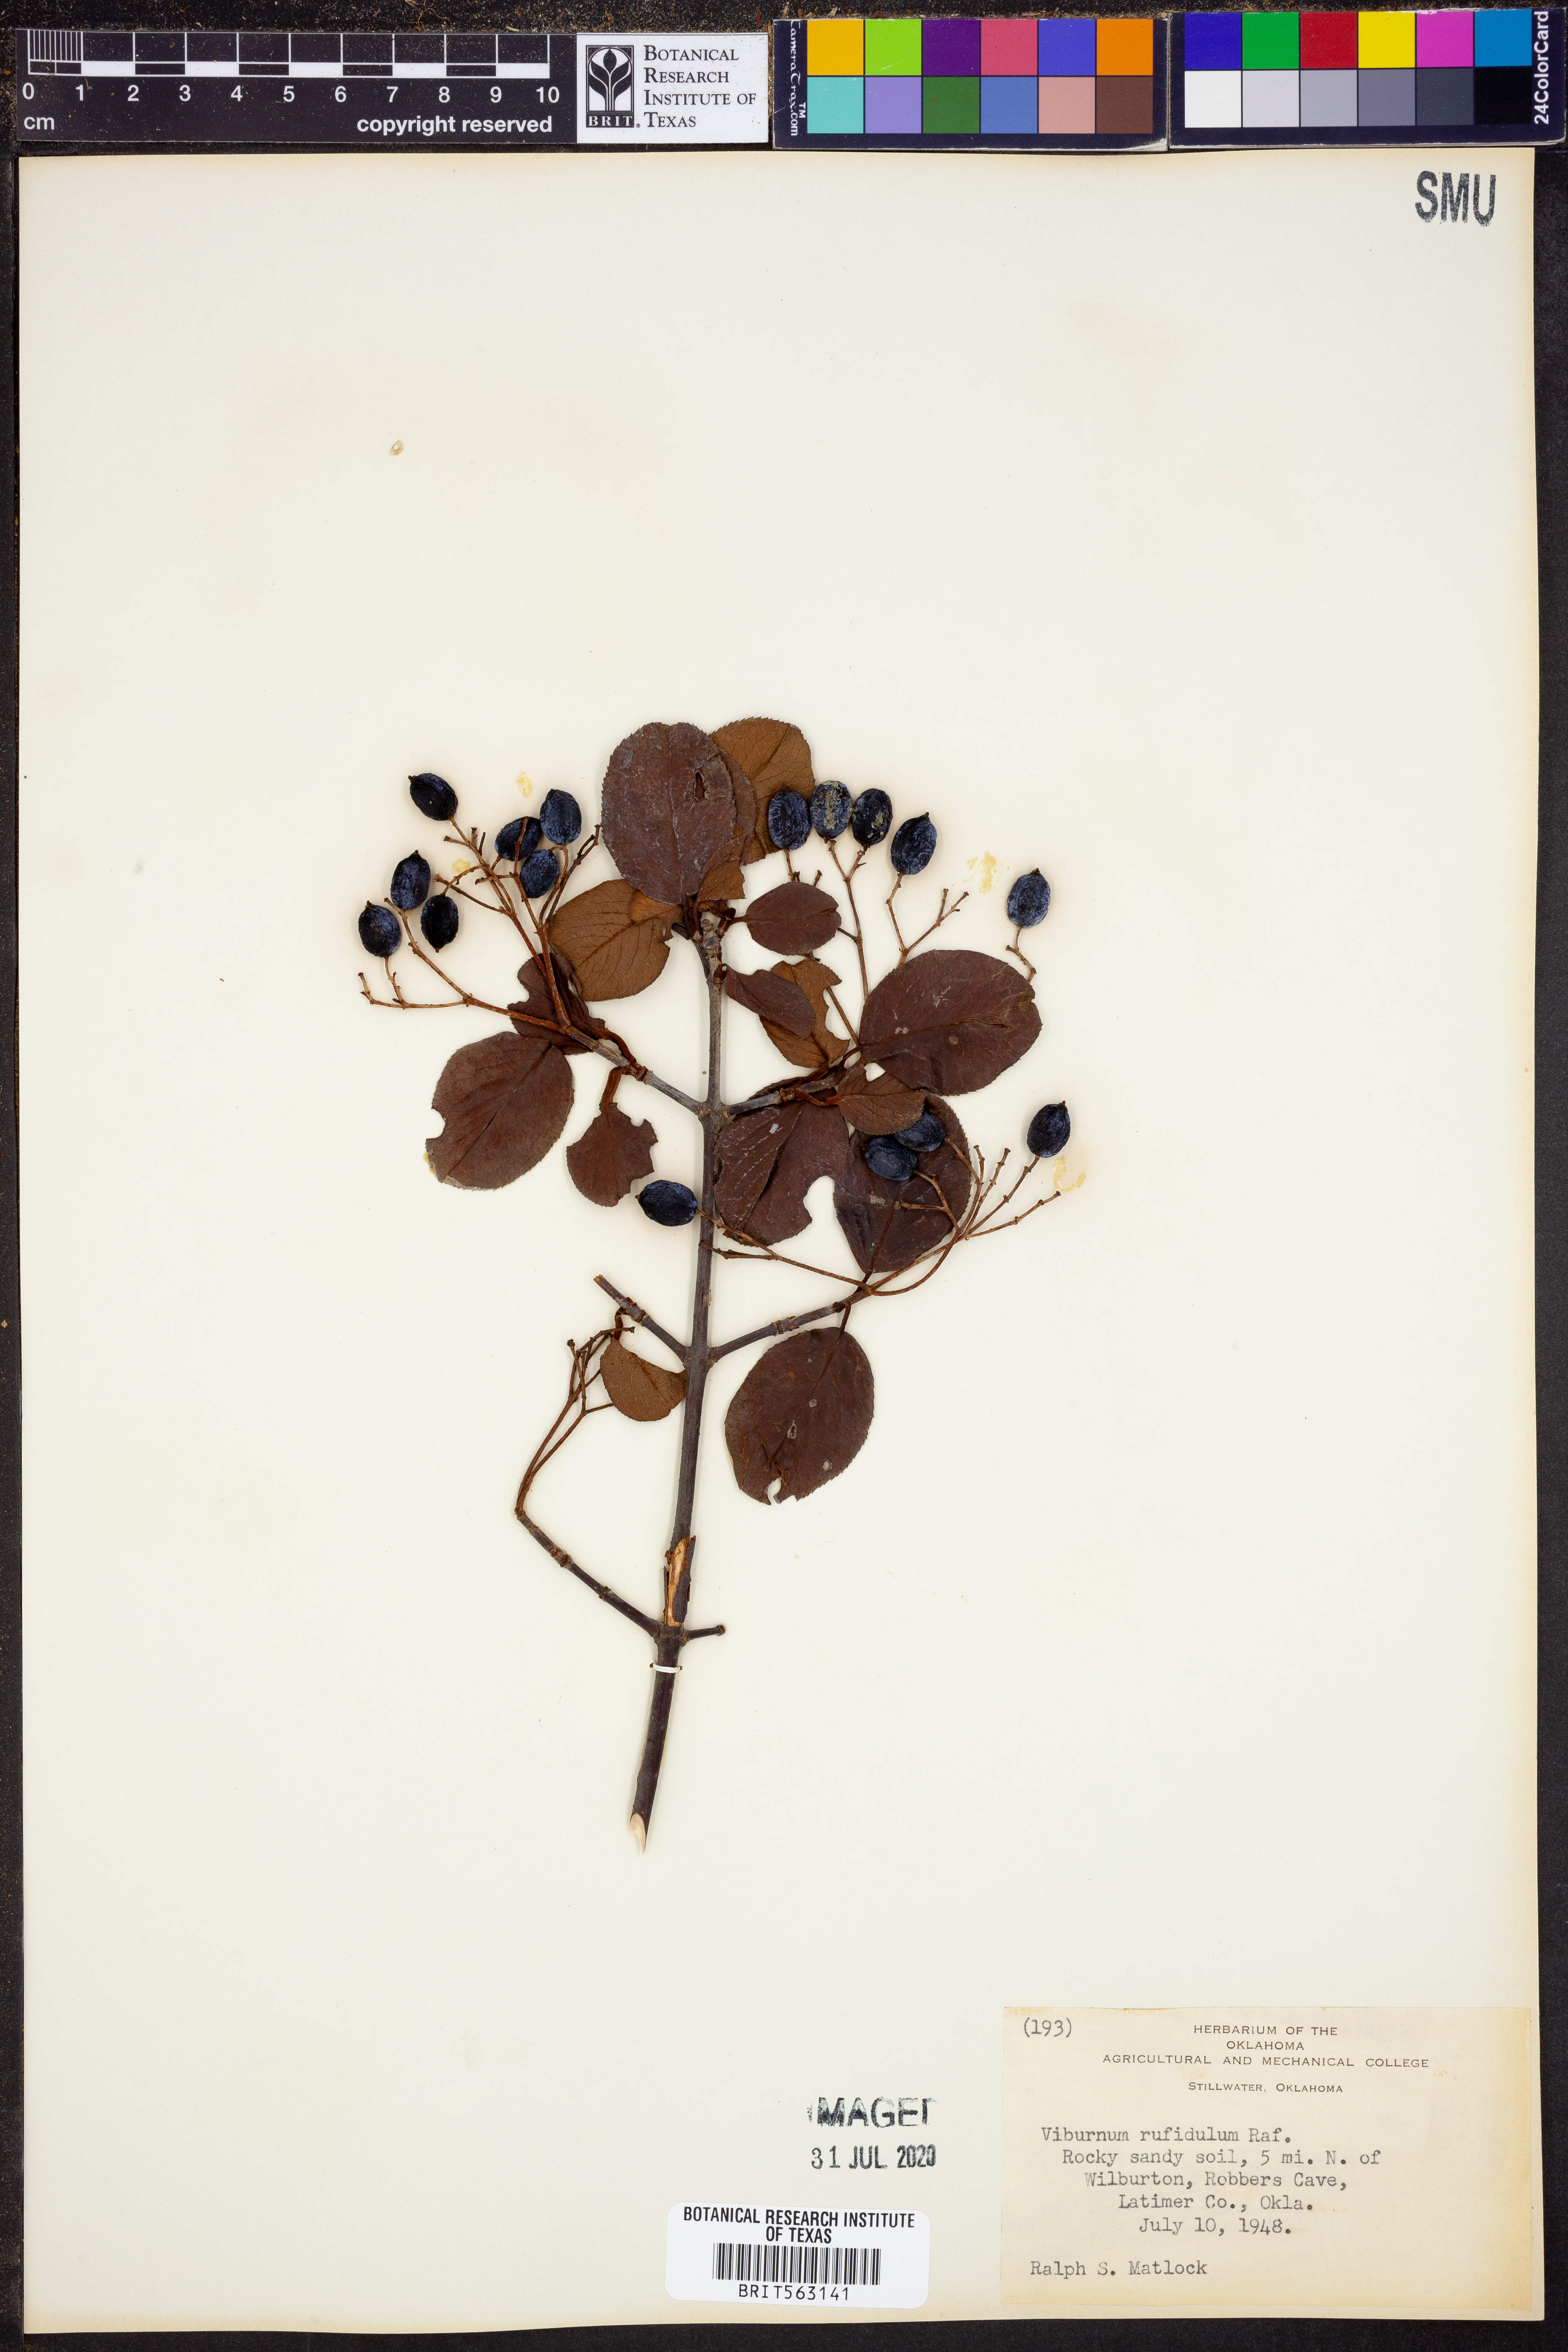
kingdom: Plantae
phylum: Tracheophyta
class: Magnoliopsida
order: Dipsacales
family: Viburnaceae
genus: Viburnum
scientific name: Viburnum rufidulum
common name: Blue haw
